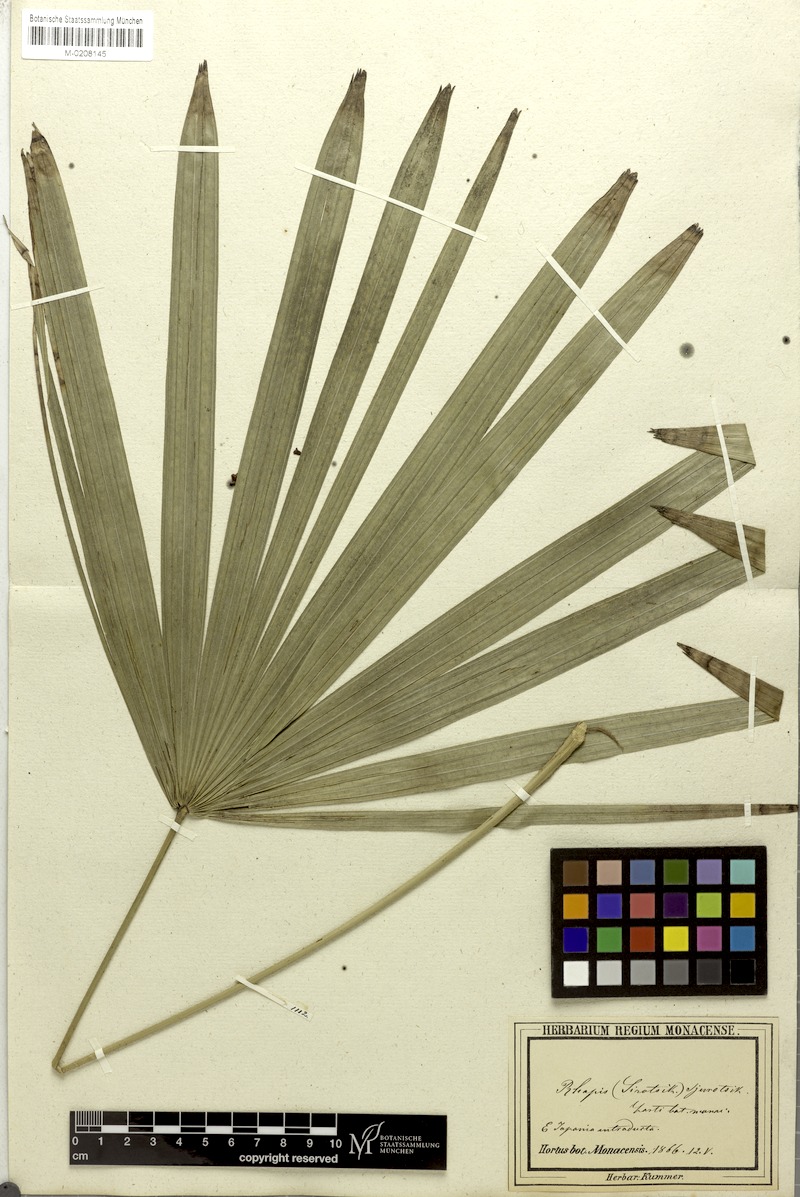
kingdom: Plantae
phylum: Tracheophyta
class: Liliopsida
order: Arecales
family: Arecaceae
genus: Rhapis
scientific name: Rhapis humilis
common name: Reed rhapis
